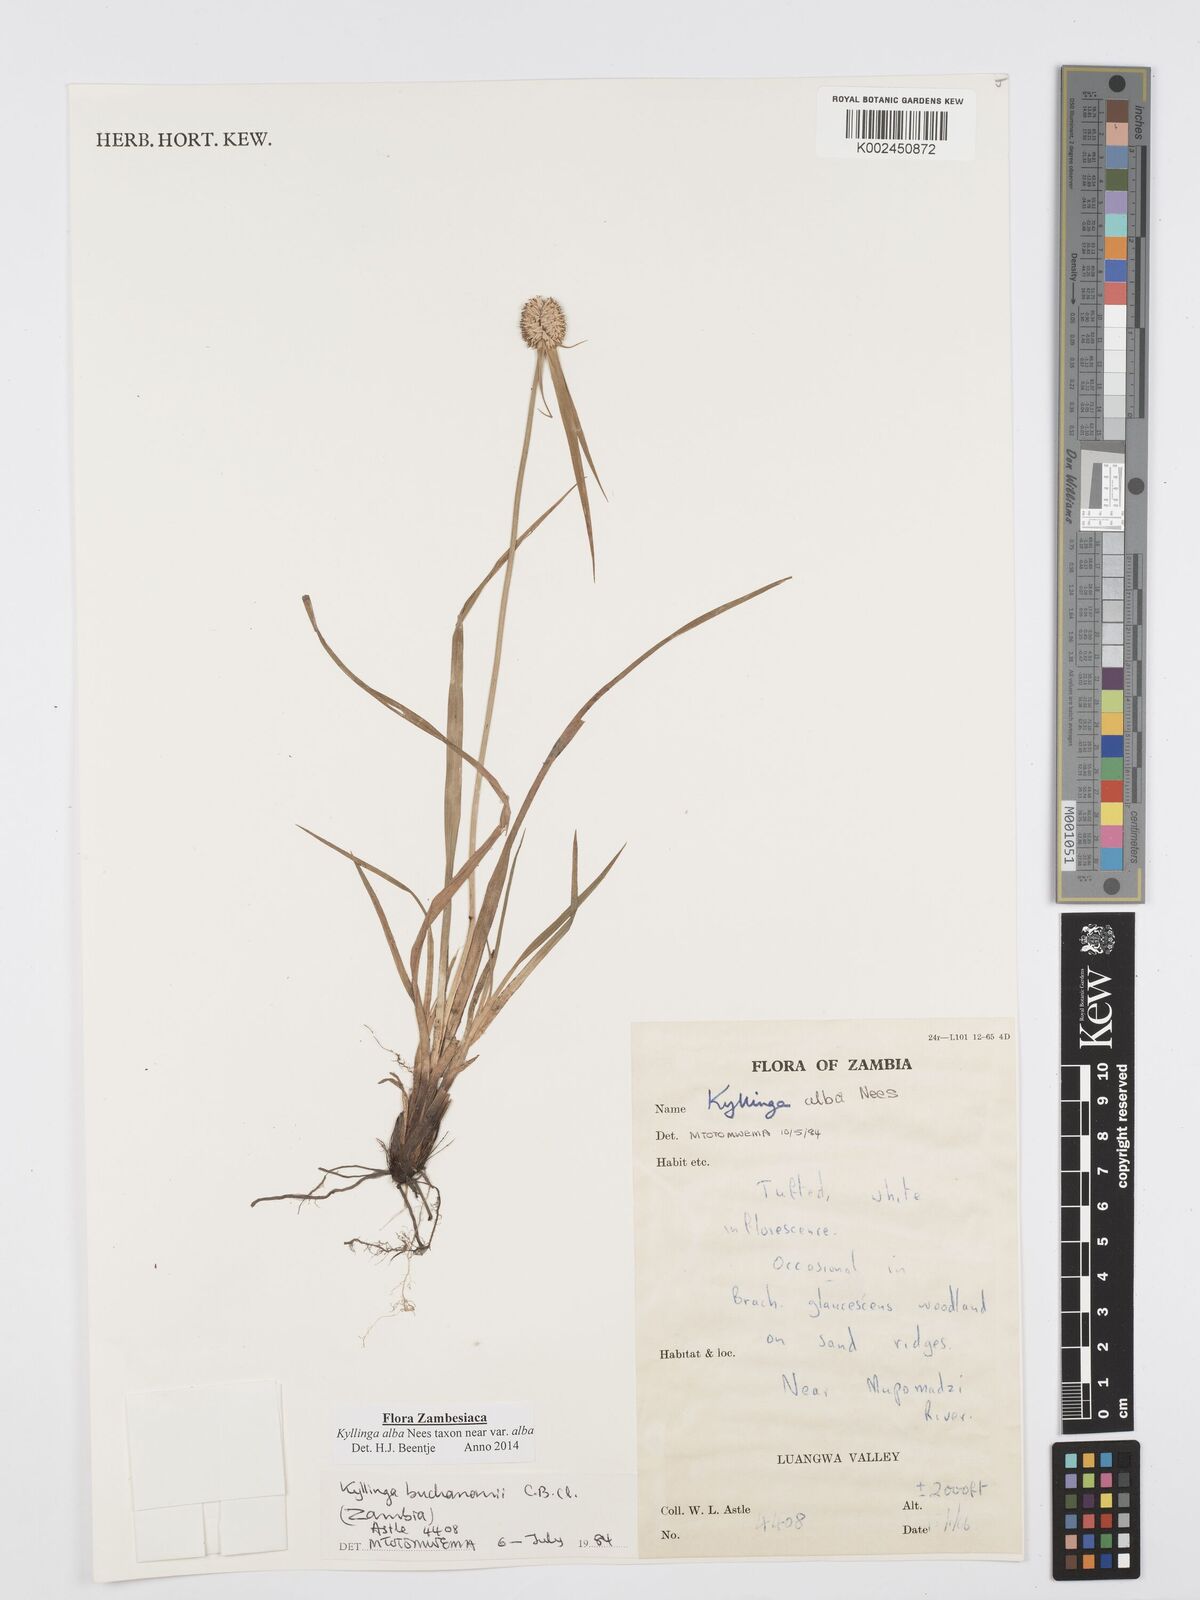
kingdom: Plantae
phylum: Tracheophyta
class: Liliopsida
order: Poales
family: Cyperaceae
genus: Cyperus
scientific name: Cyperus
